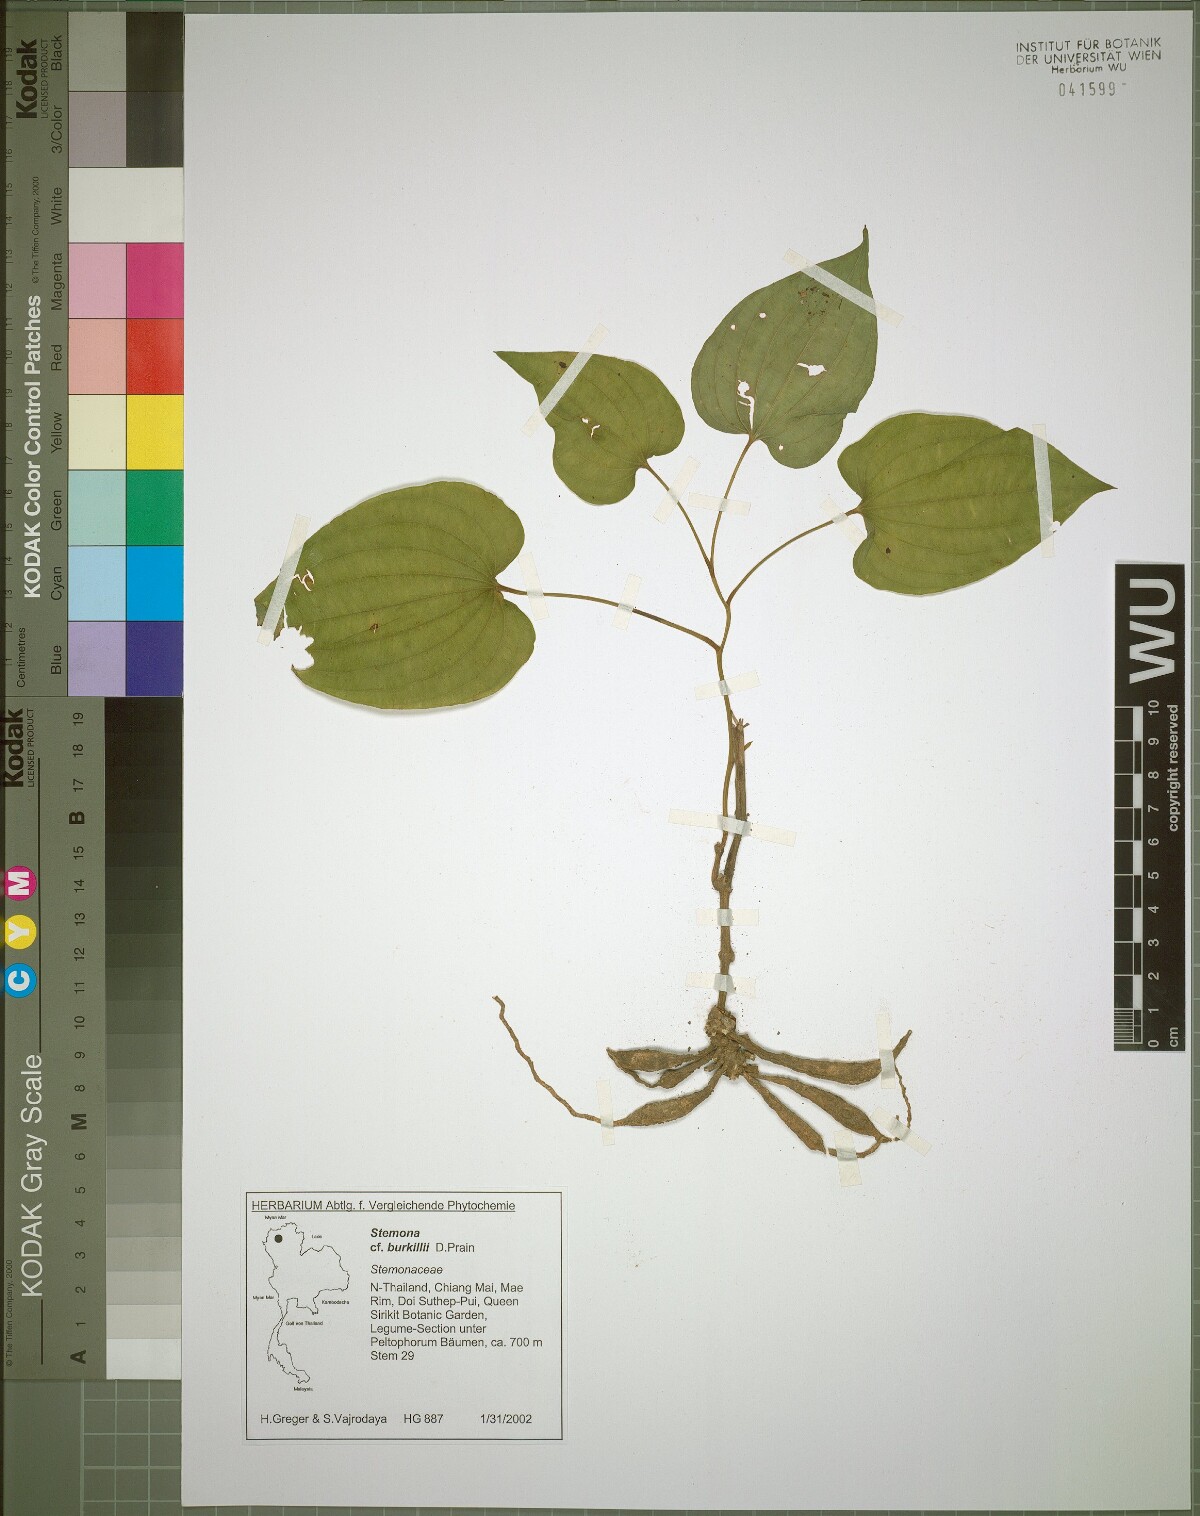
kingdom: Plantae
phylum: Tracheophyta
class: Liliopsida
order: Pandanales
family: Stemonaceae
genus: Stemona
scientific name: Stemona burkillii
